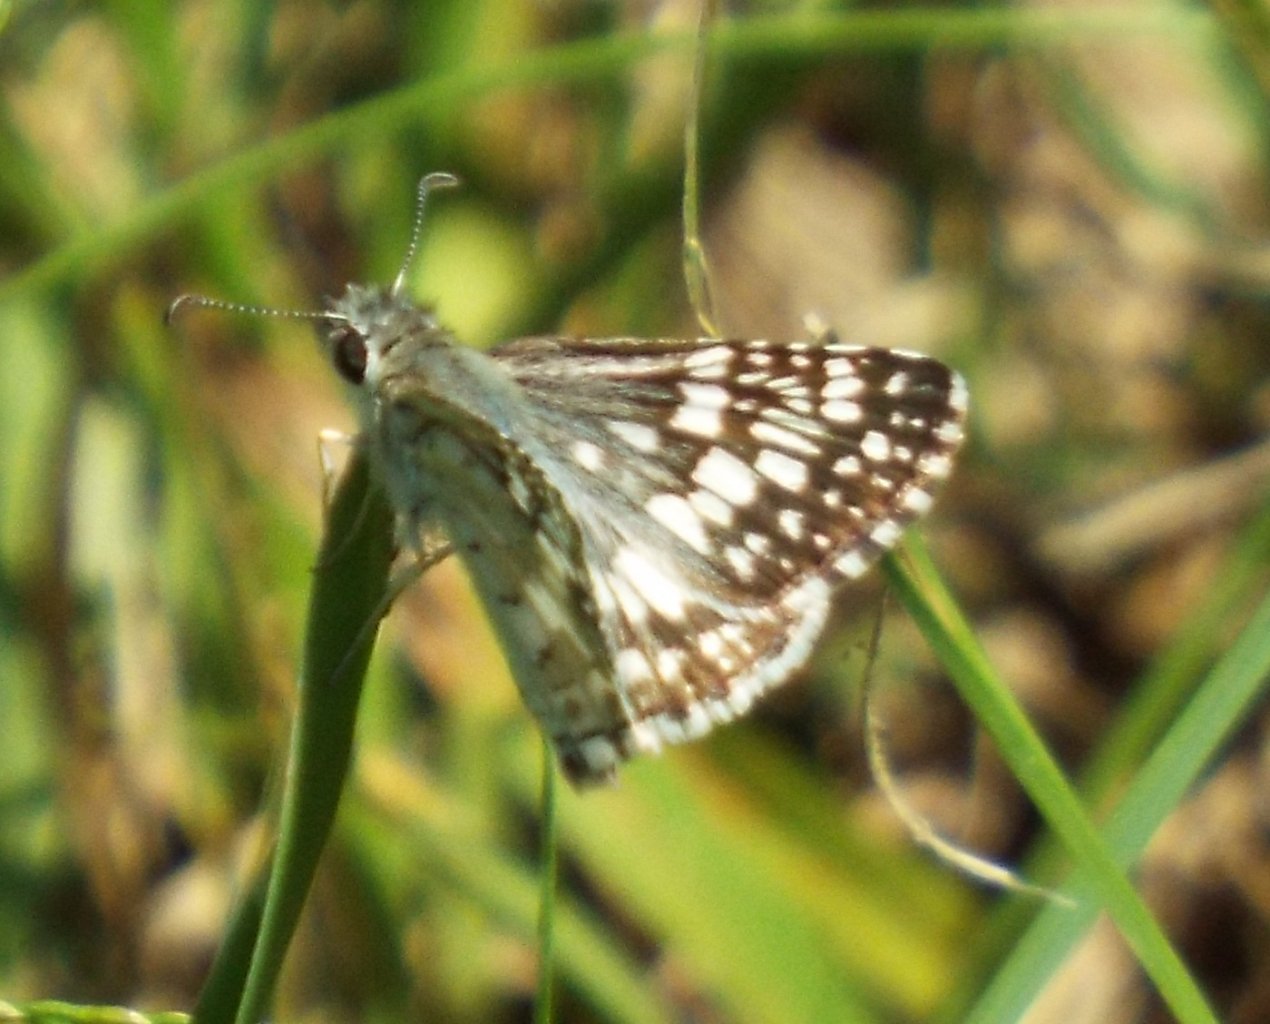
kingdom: Animalia
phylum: Arthropoda
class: Insecta
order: Lepidoptera
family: Hesperiidae
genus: Pyrgus
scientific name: Pyrgus communis
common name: White Checkered-Skipper
